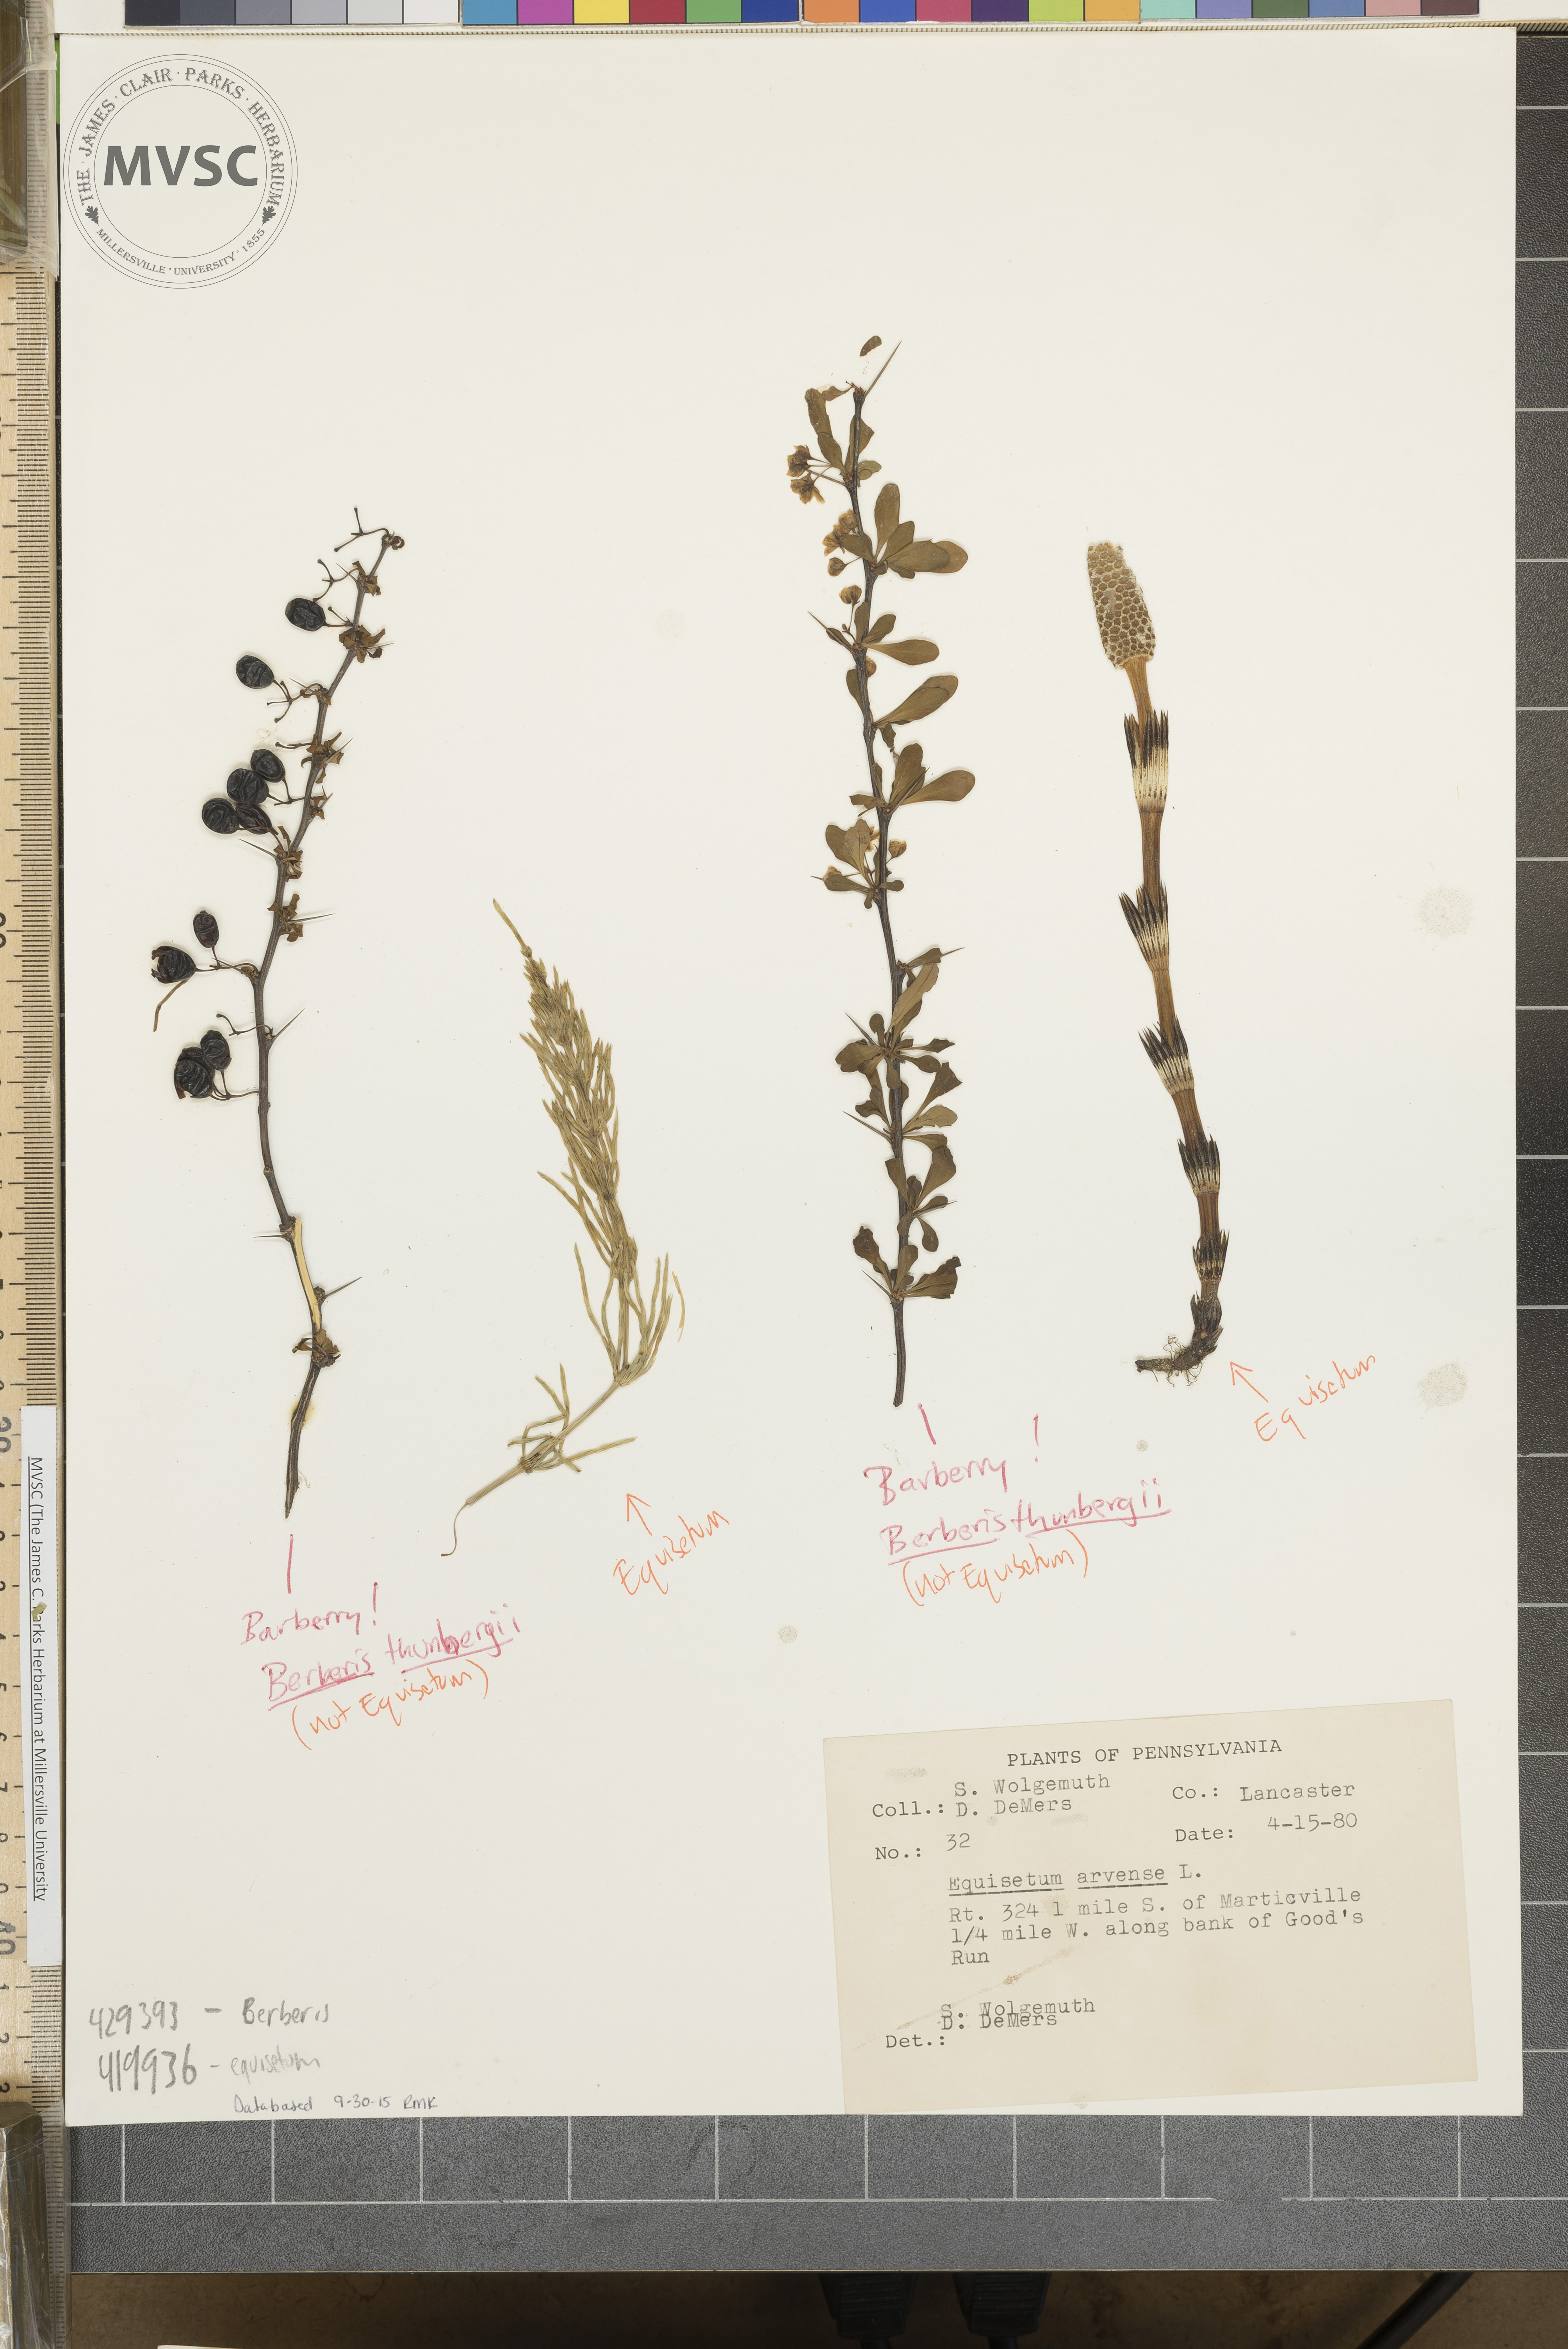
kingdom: Plantae
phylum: Tracheophyta
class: Magnoliopsida
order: Ranunculales
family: Berberidaceae
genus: Berberis
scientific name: Berberis thunbergii
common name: Japanese barberry
